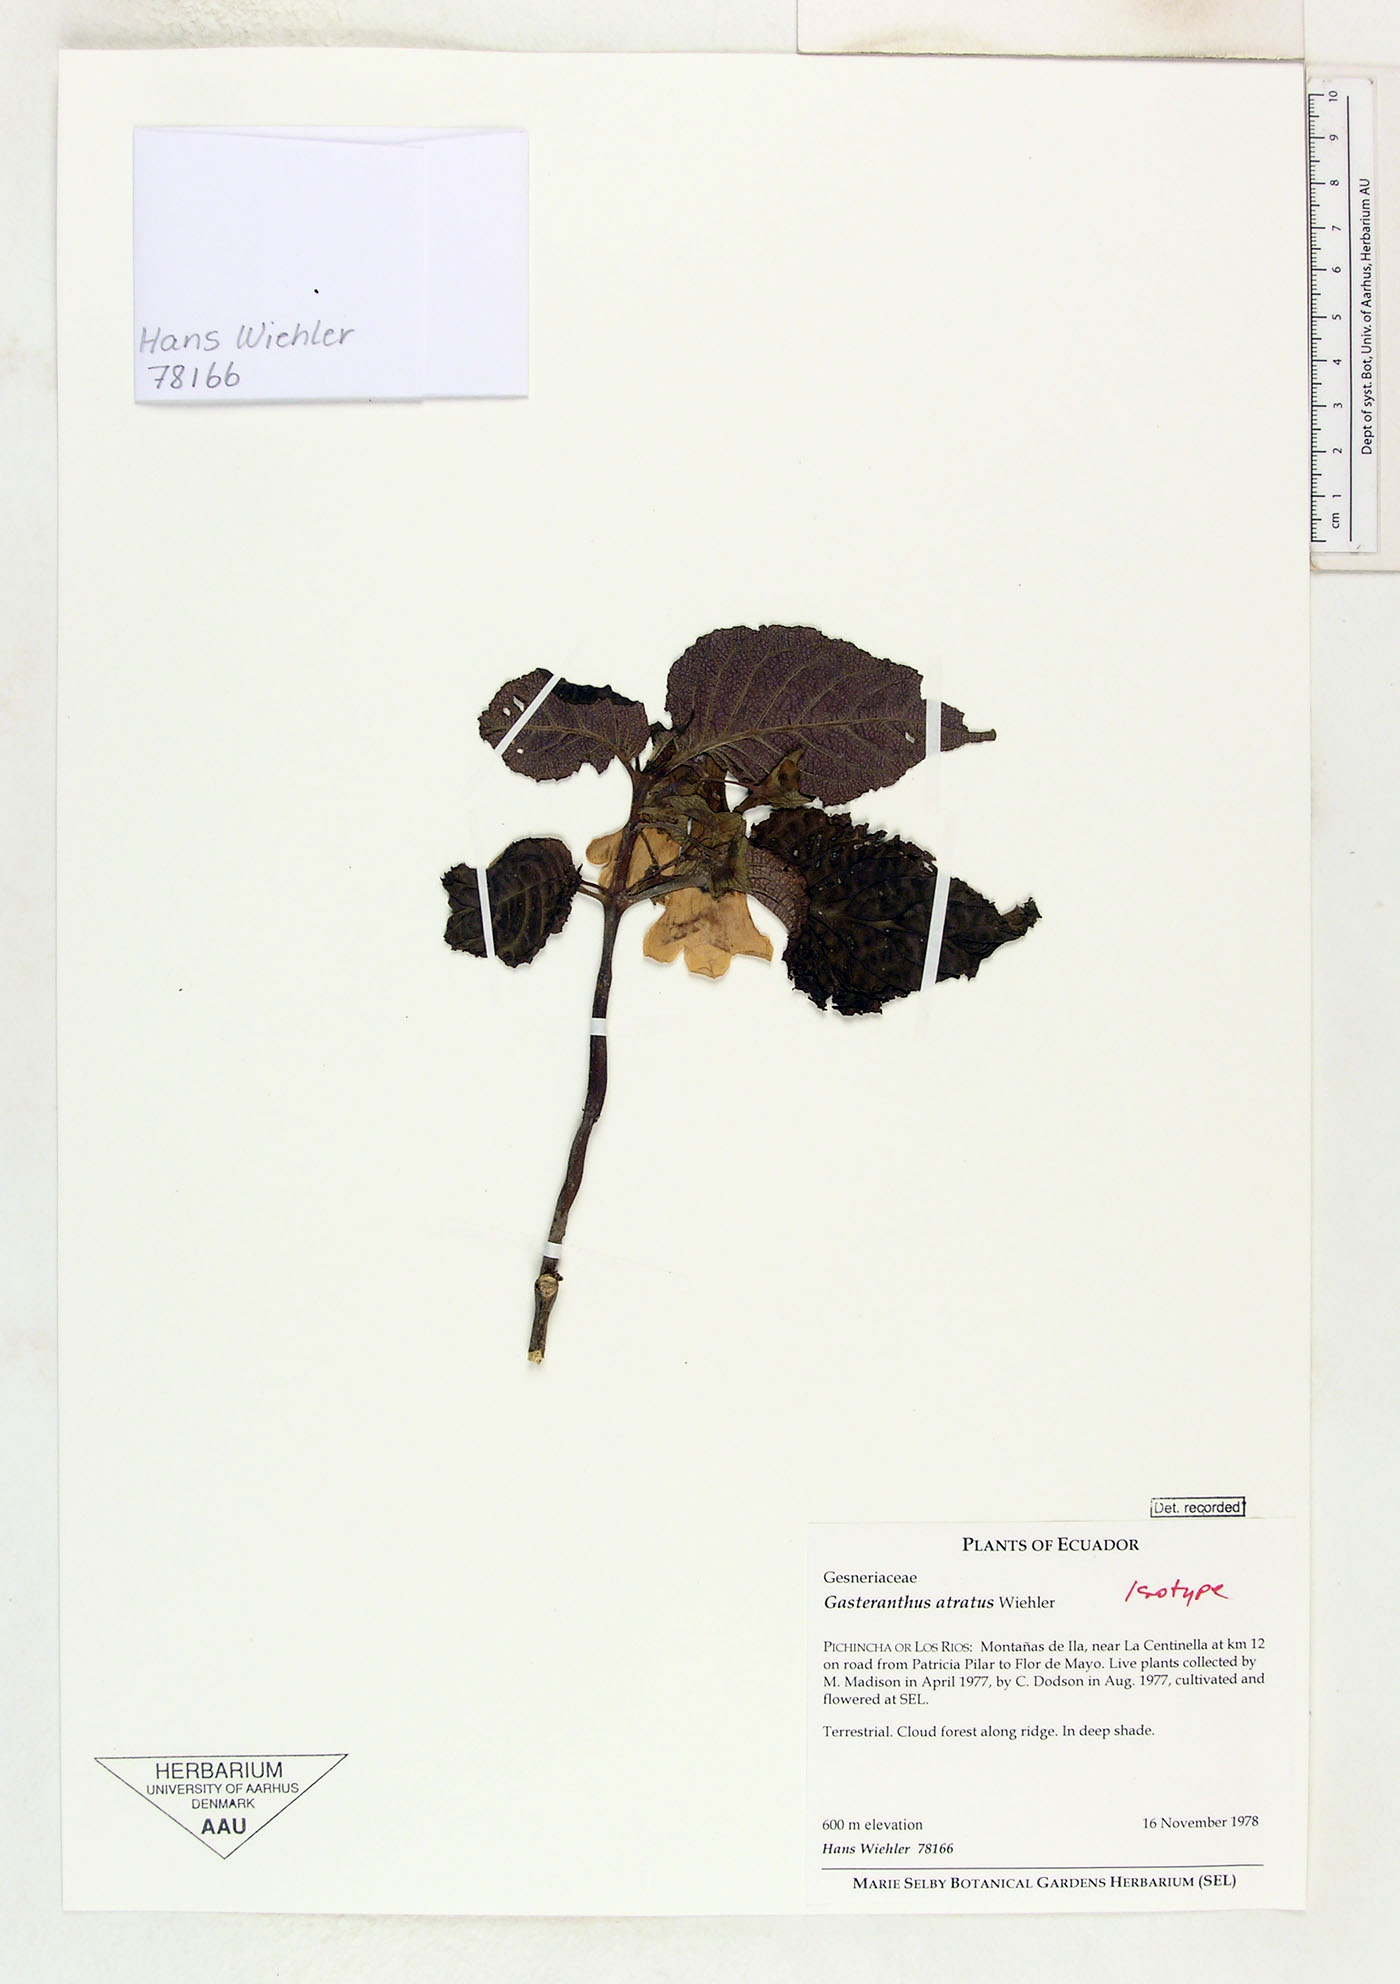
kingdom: Plantae
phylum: Tracheophyta
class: Magnoliopsida
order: Lamiales
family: Gesneriaceae
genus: Gasteranthus
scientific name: Gasteranthus atratus
